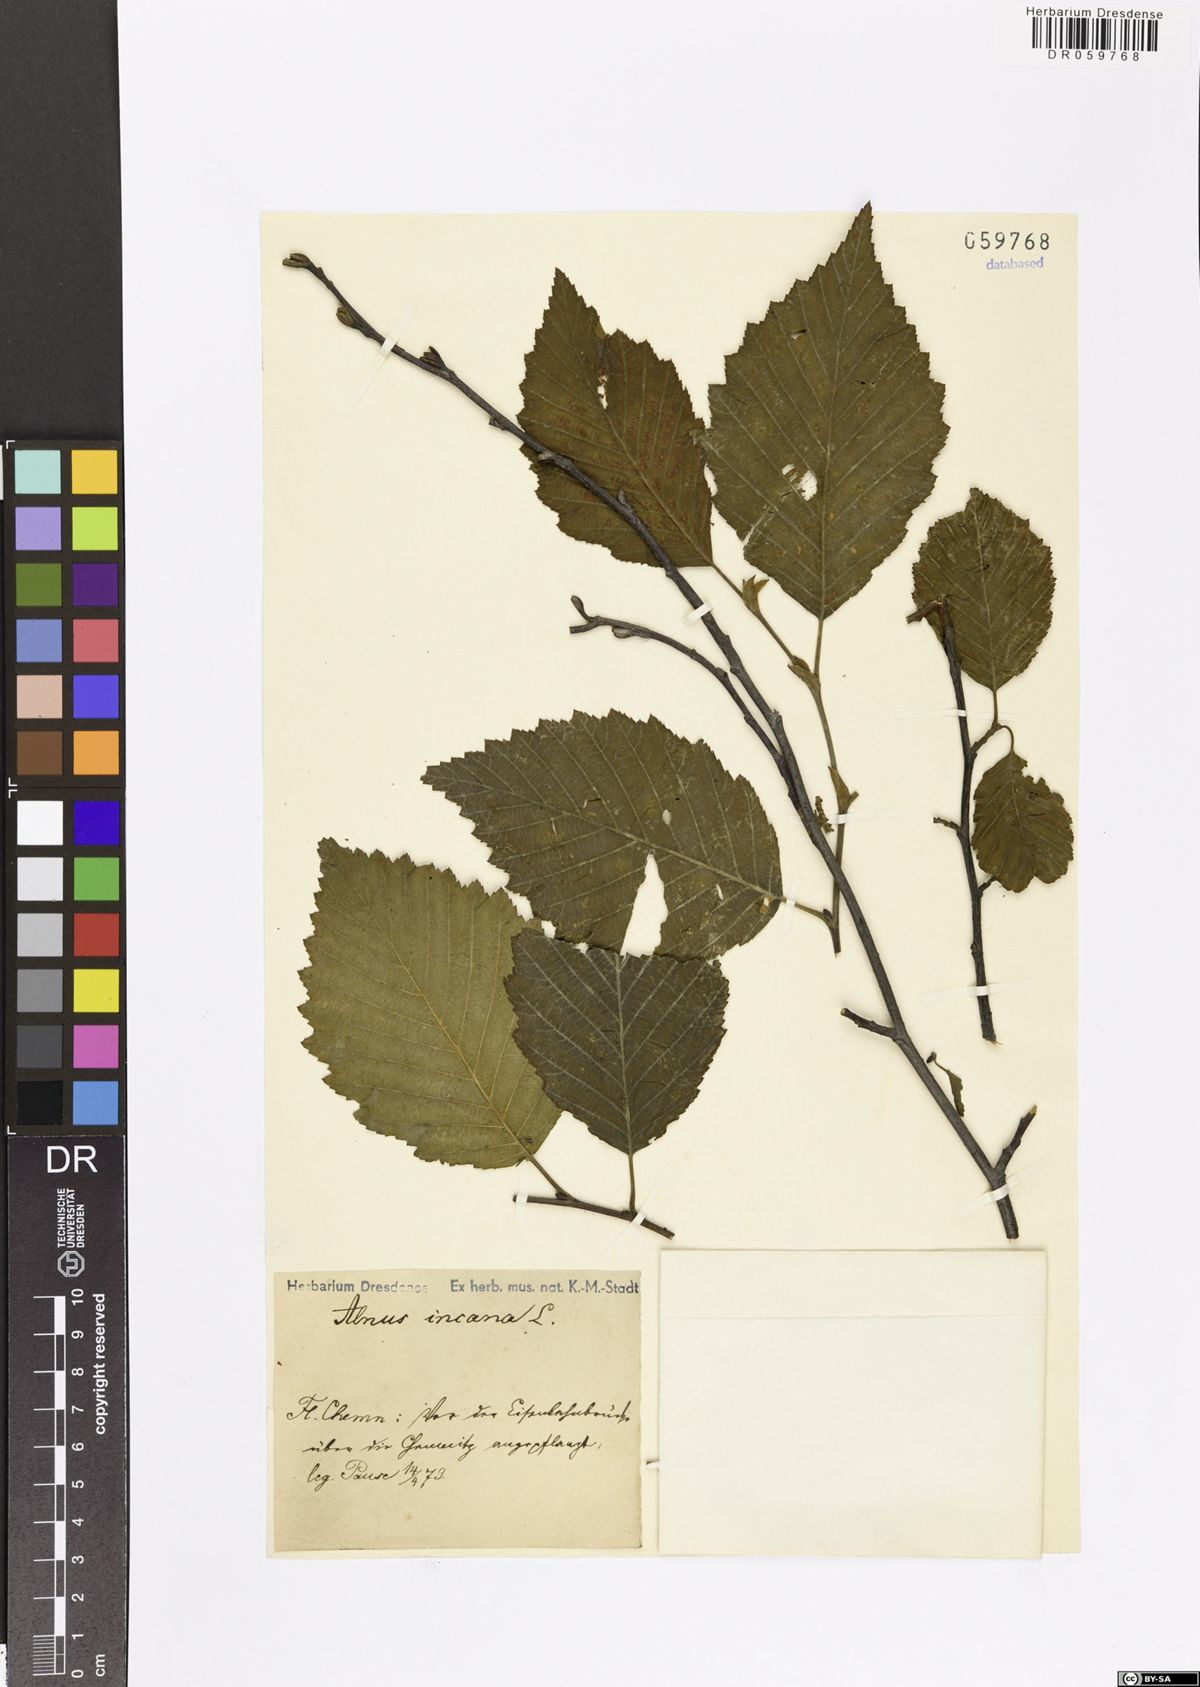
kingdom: Plantae
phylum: Tracheophyta
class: Magnoliopsida
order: Fagales
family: Betulaceae
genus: Alnus
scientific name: Alnus incana
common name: Grey alder
